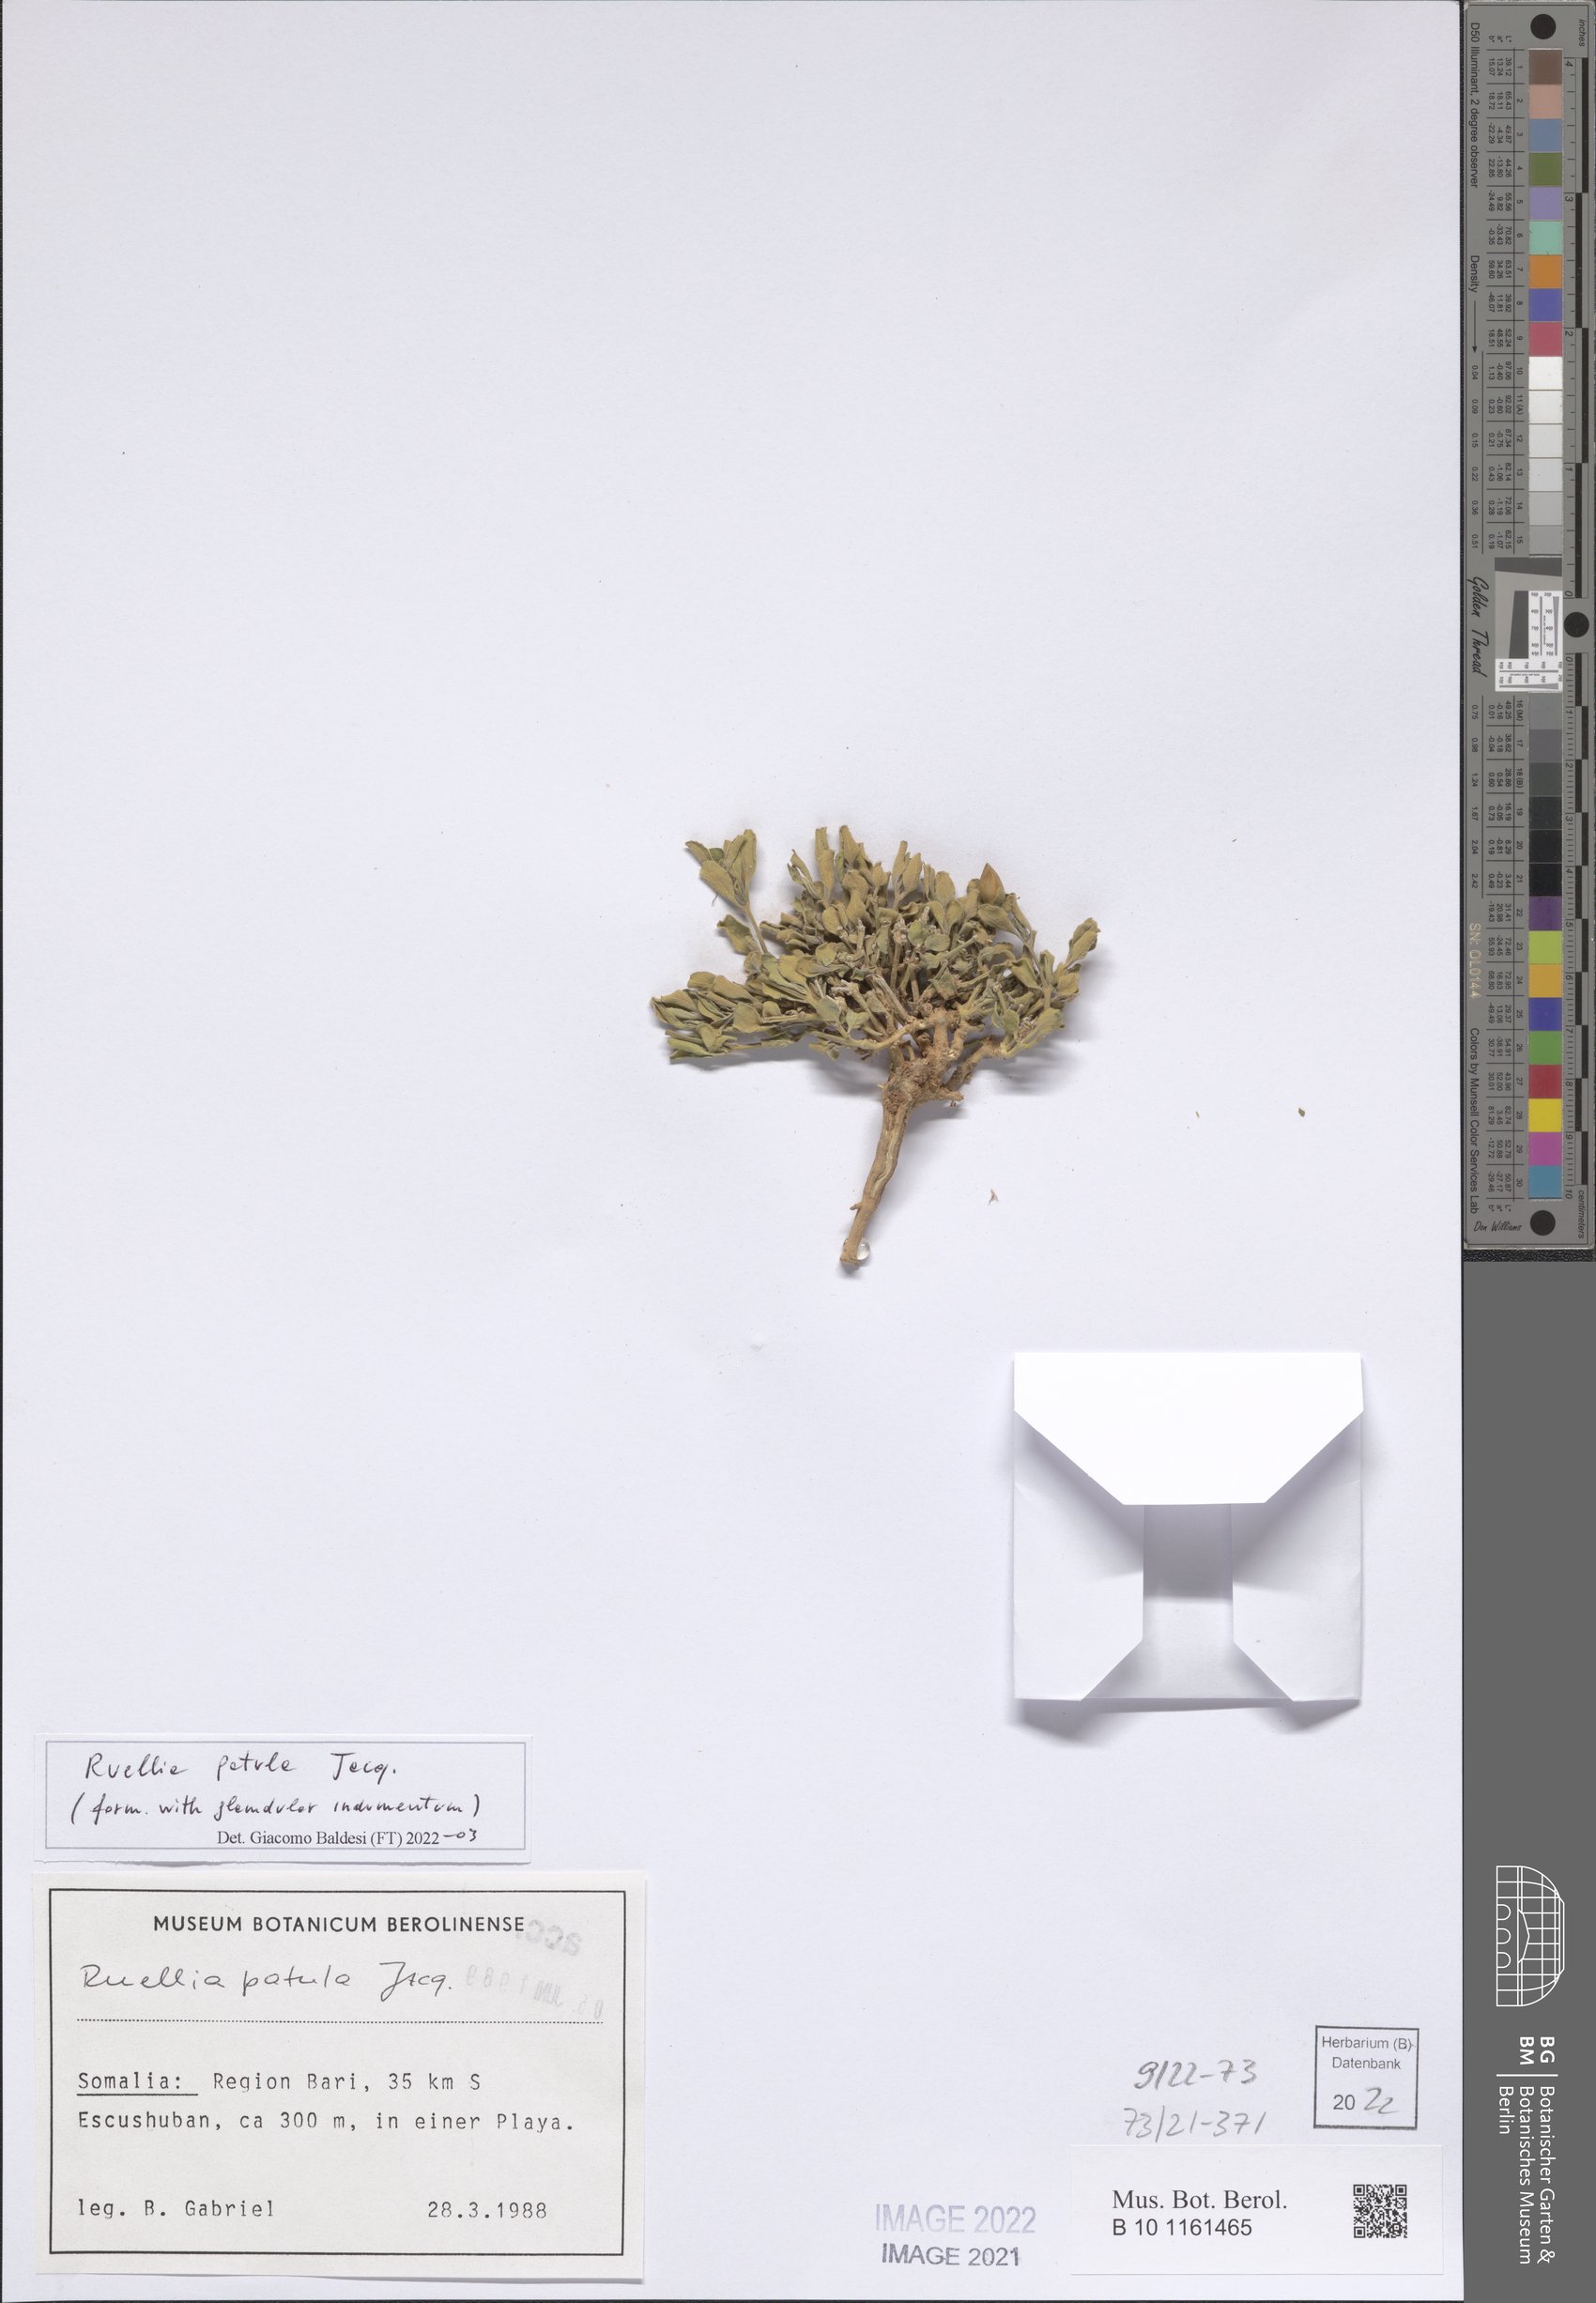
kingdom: Plantae
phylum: Tracheophyta
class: Magnoliopsida
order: Lamiales
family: Acanthaceae
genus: Ruellia
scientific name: Ruellia patula
